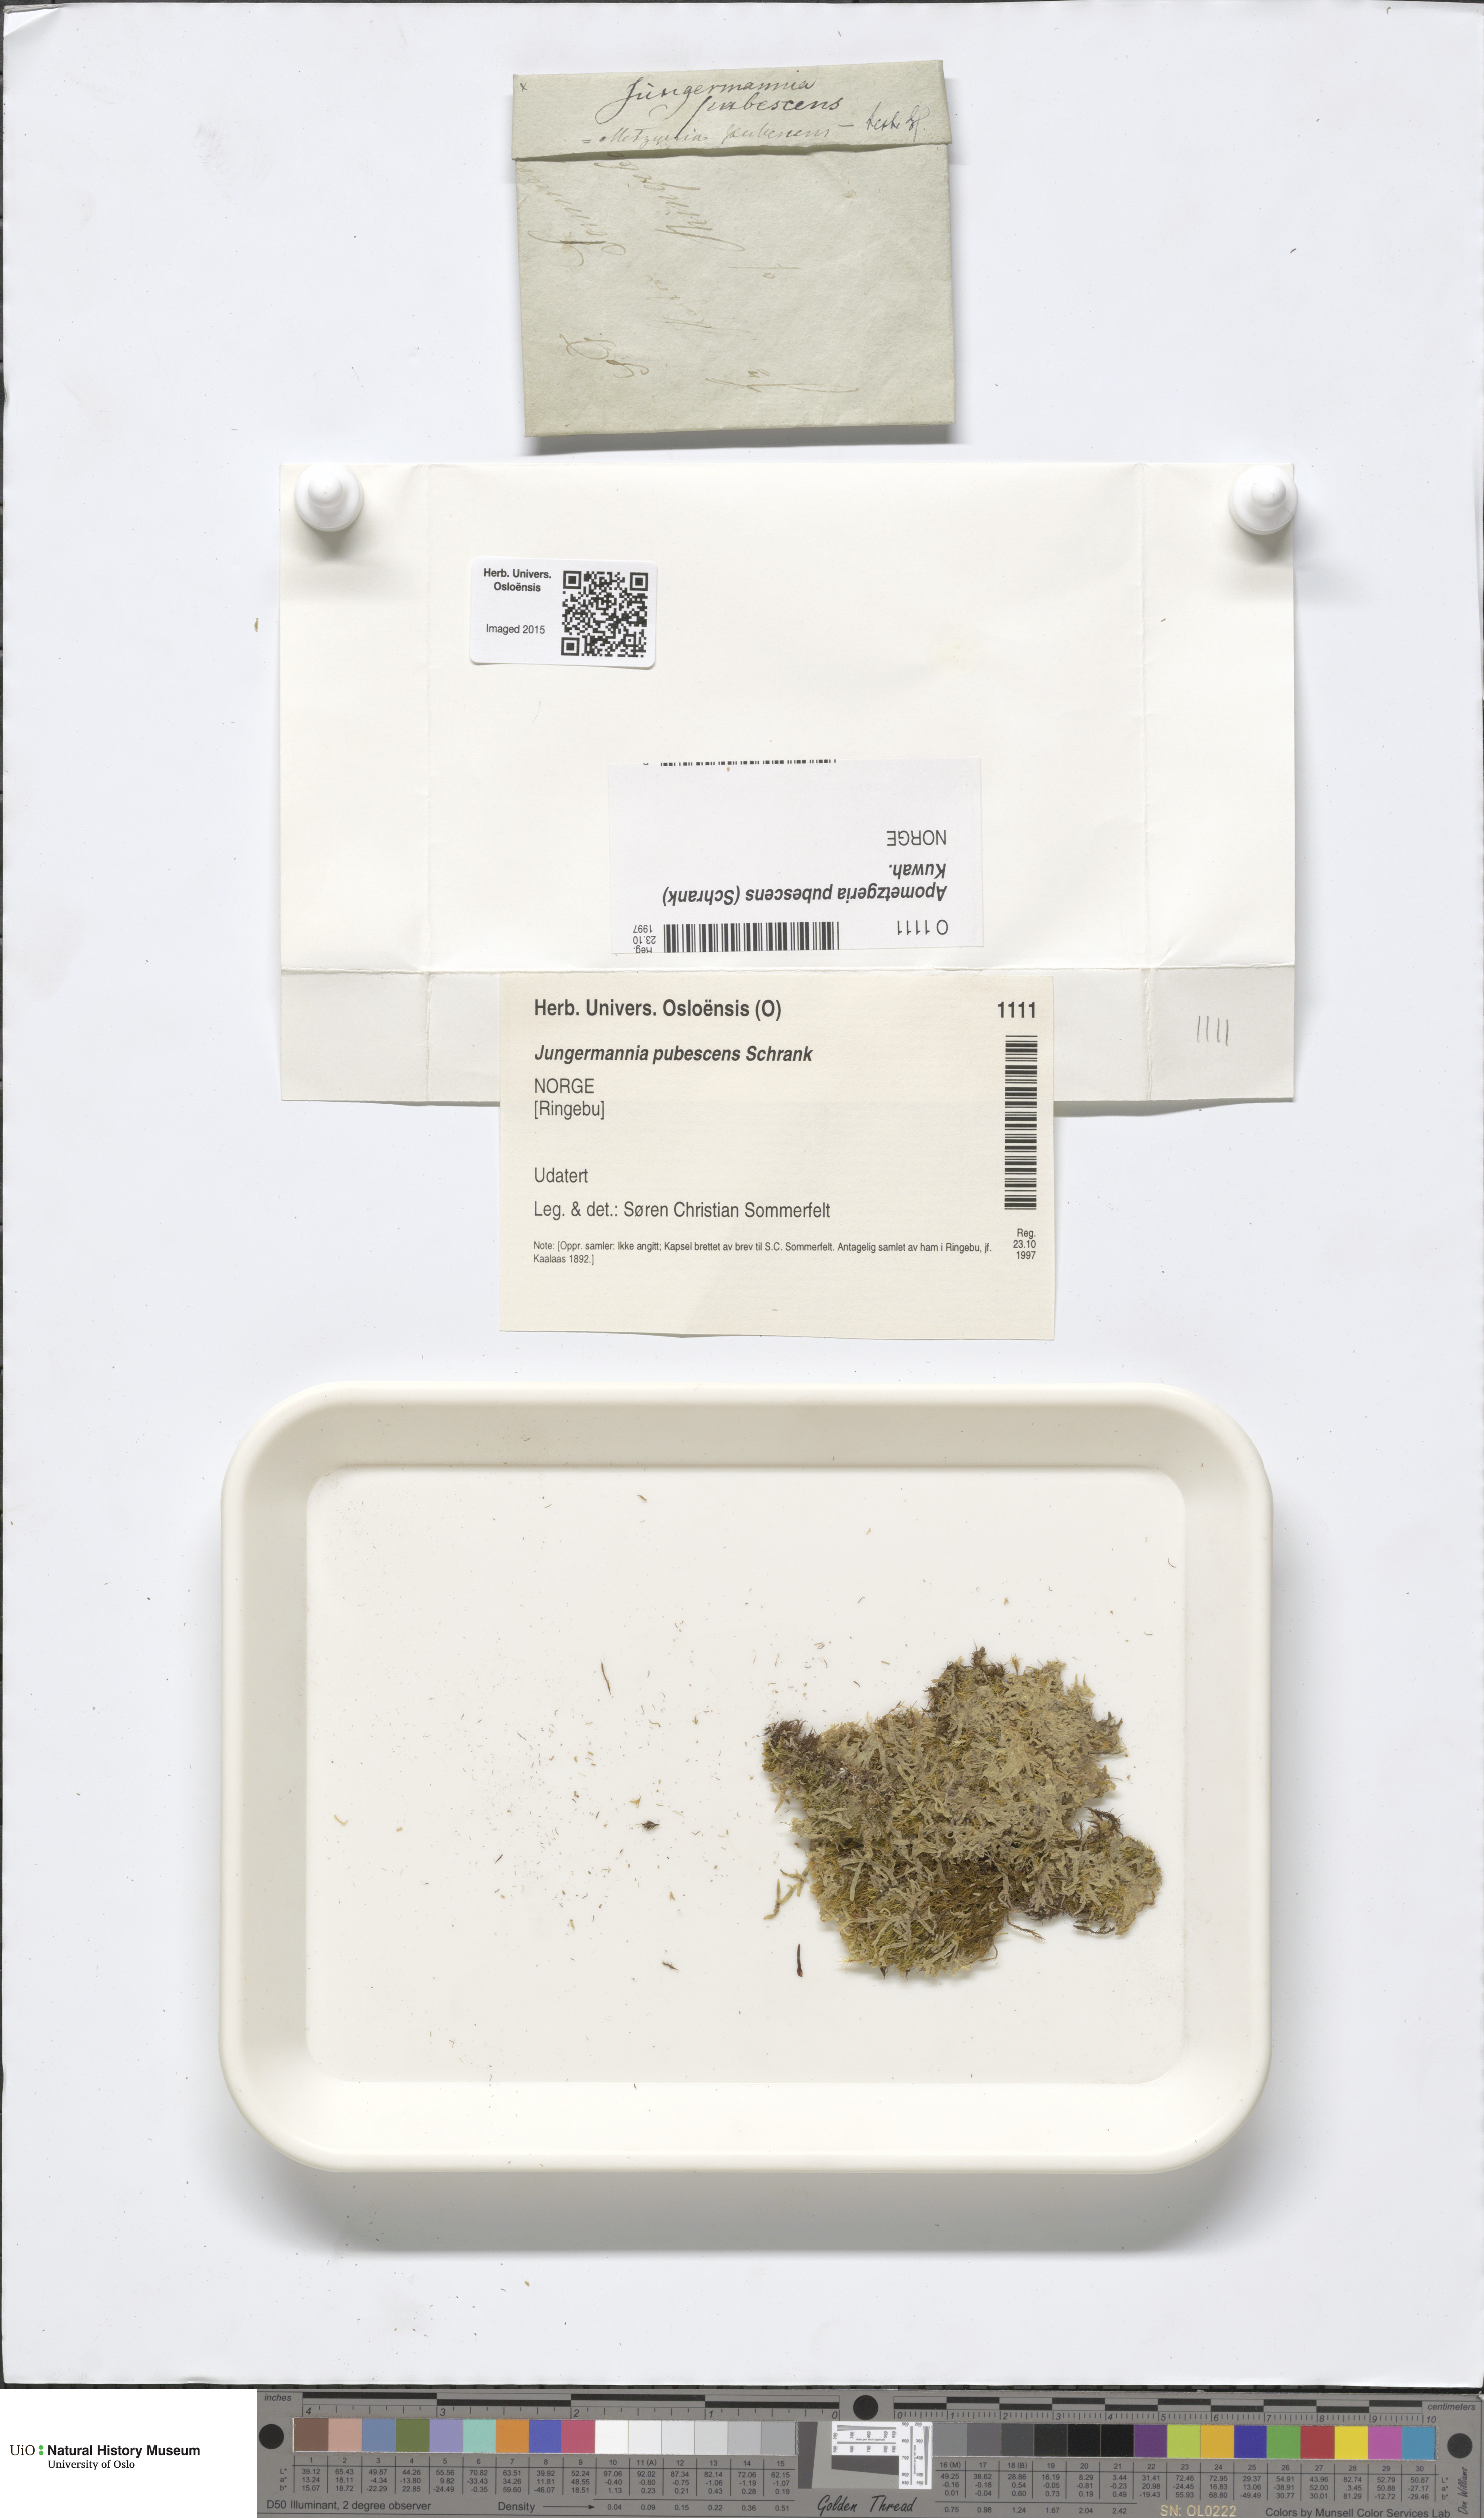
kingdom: Plantae
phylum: Marchantiophyta
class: Jungermanniopsida
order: Metzgeriales
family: Metzgeriaceae
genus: Metzgeria
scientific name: Metzgeria pubescens
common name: Downy veilwort
